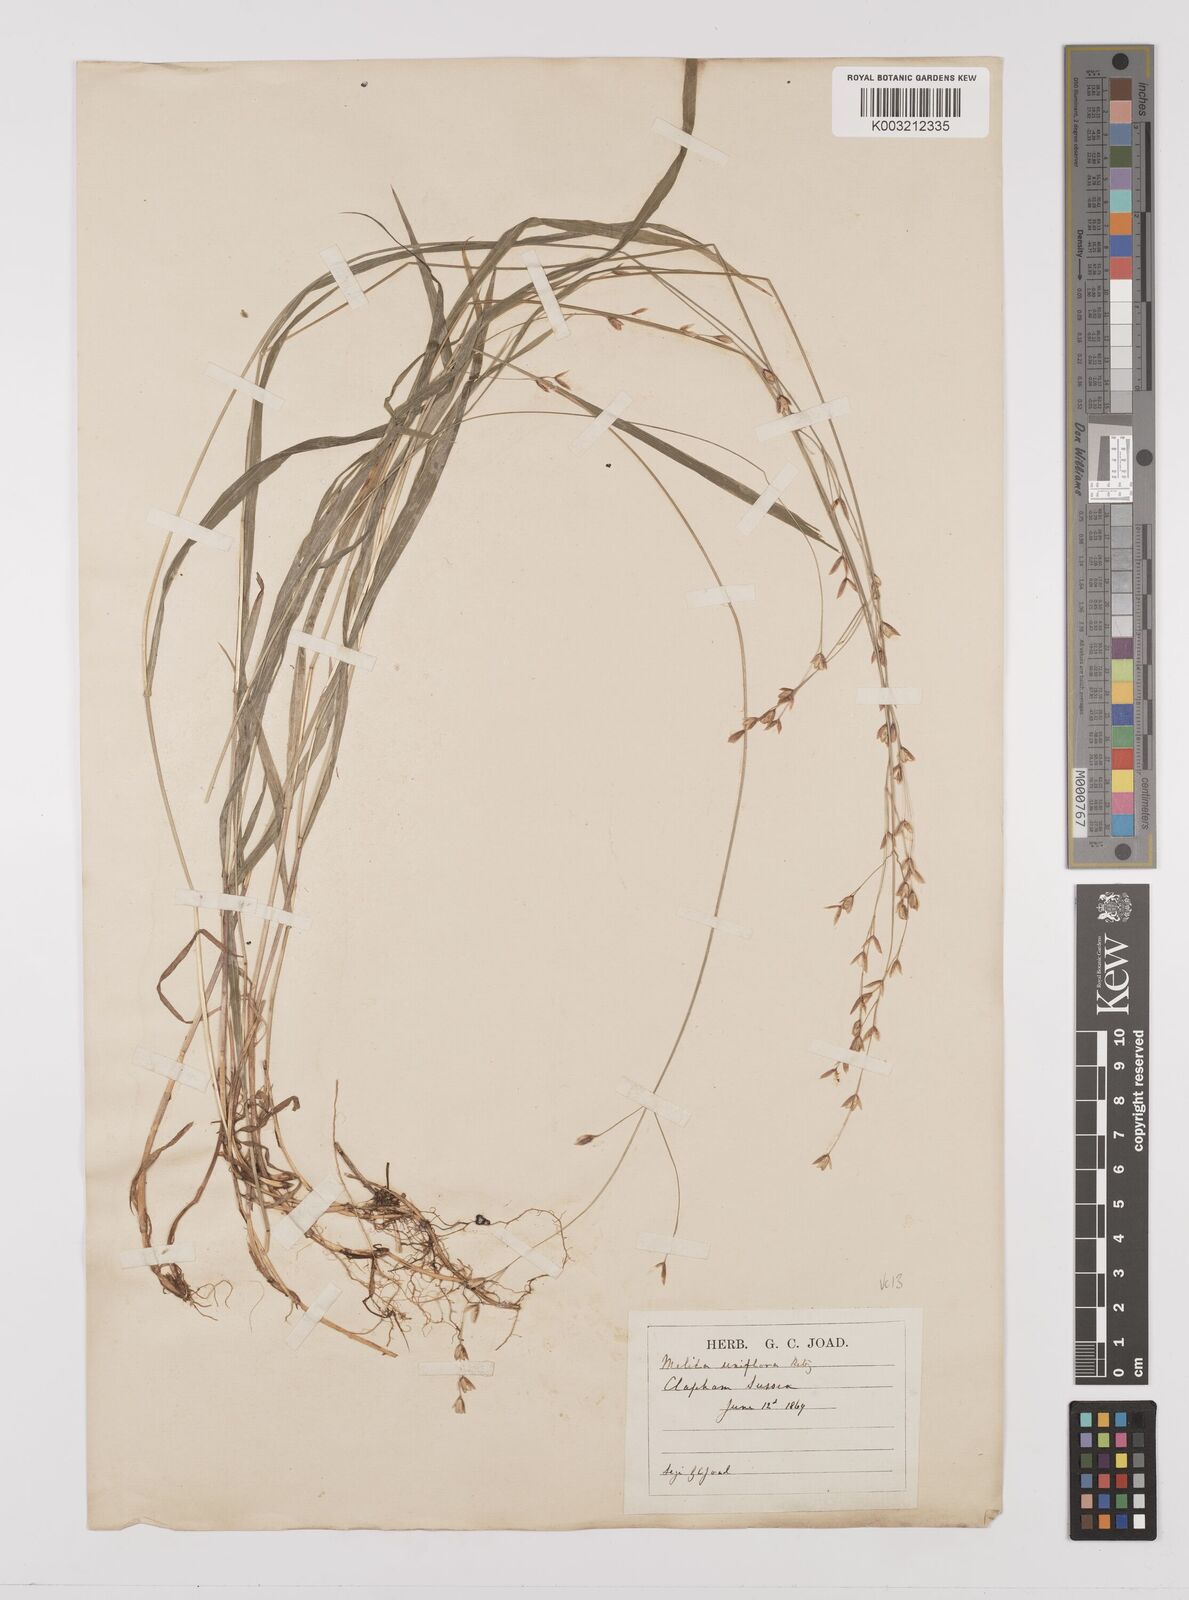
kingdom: Plantae
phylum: Tracheophyta
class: Liliopsida
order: Poales
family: Poaceae
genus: Melica
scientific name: Melica uniflora
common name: Wood melick
